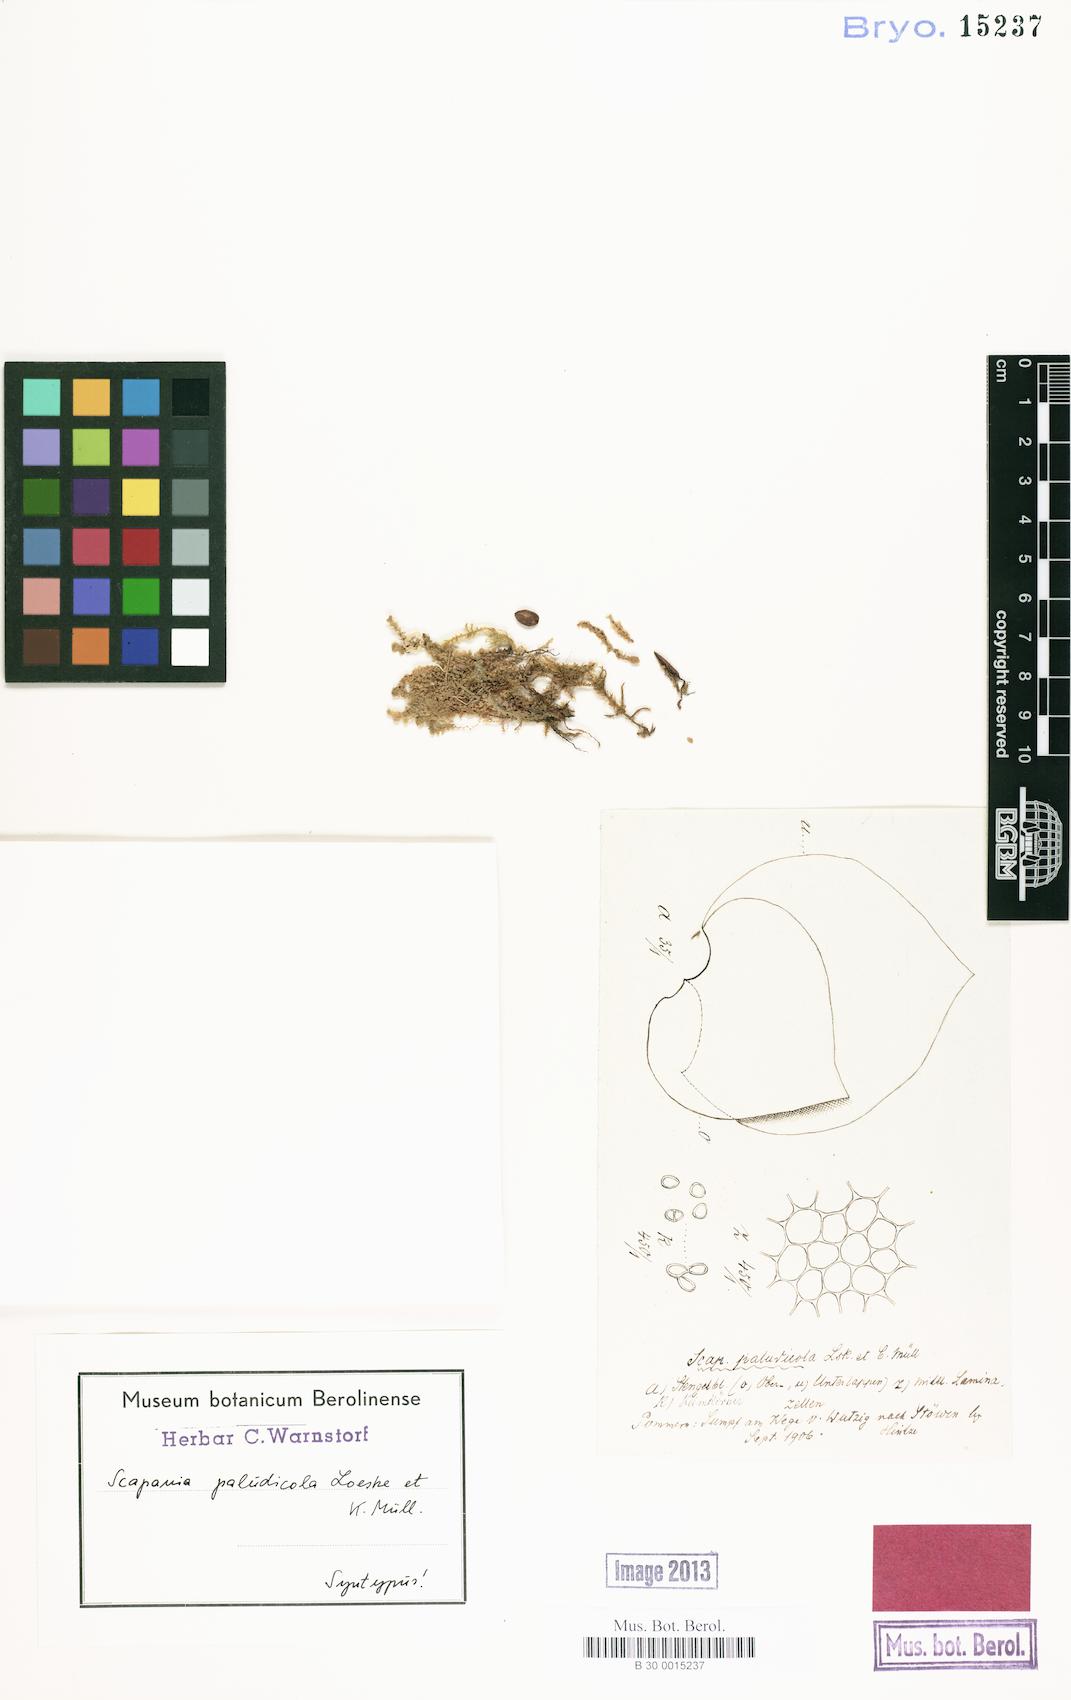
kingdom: Plantae
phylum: Marchantiophyta
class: Jungermanniopsida
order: Jungermanniales
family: Scapaniaceae
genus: Scapania
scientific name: Scapania paludicola
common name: Bog earwort
